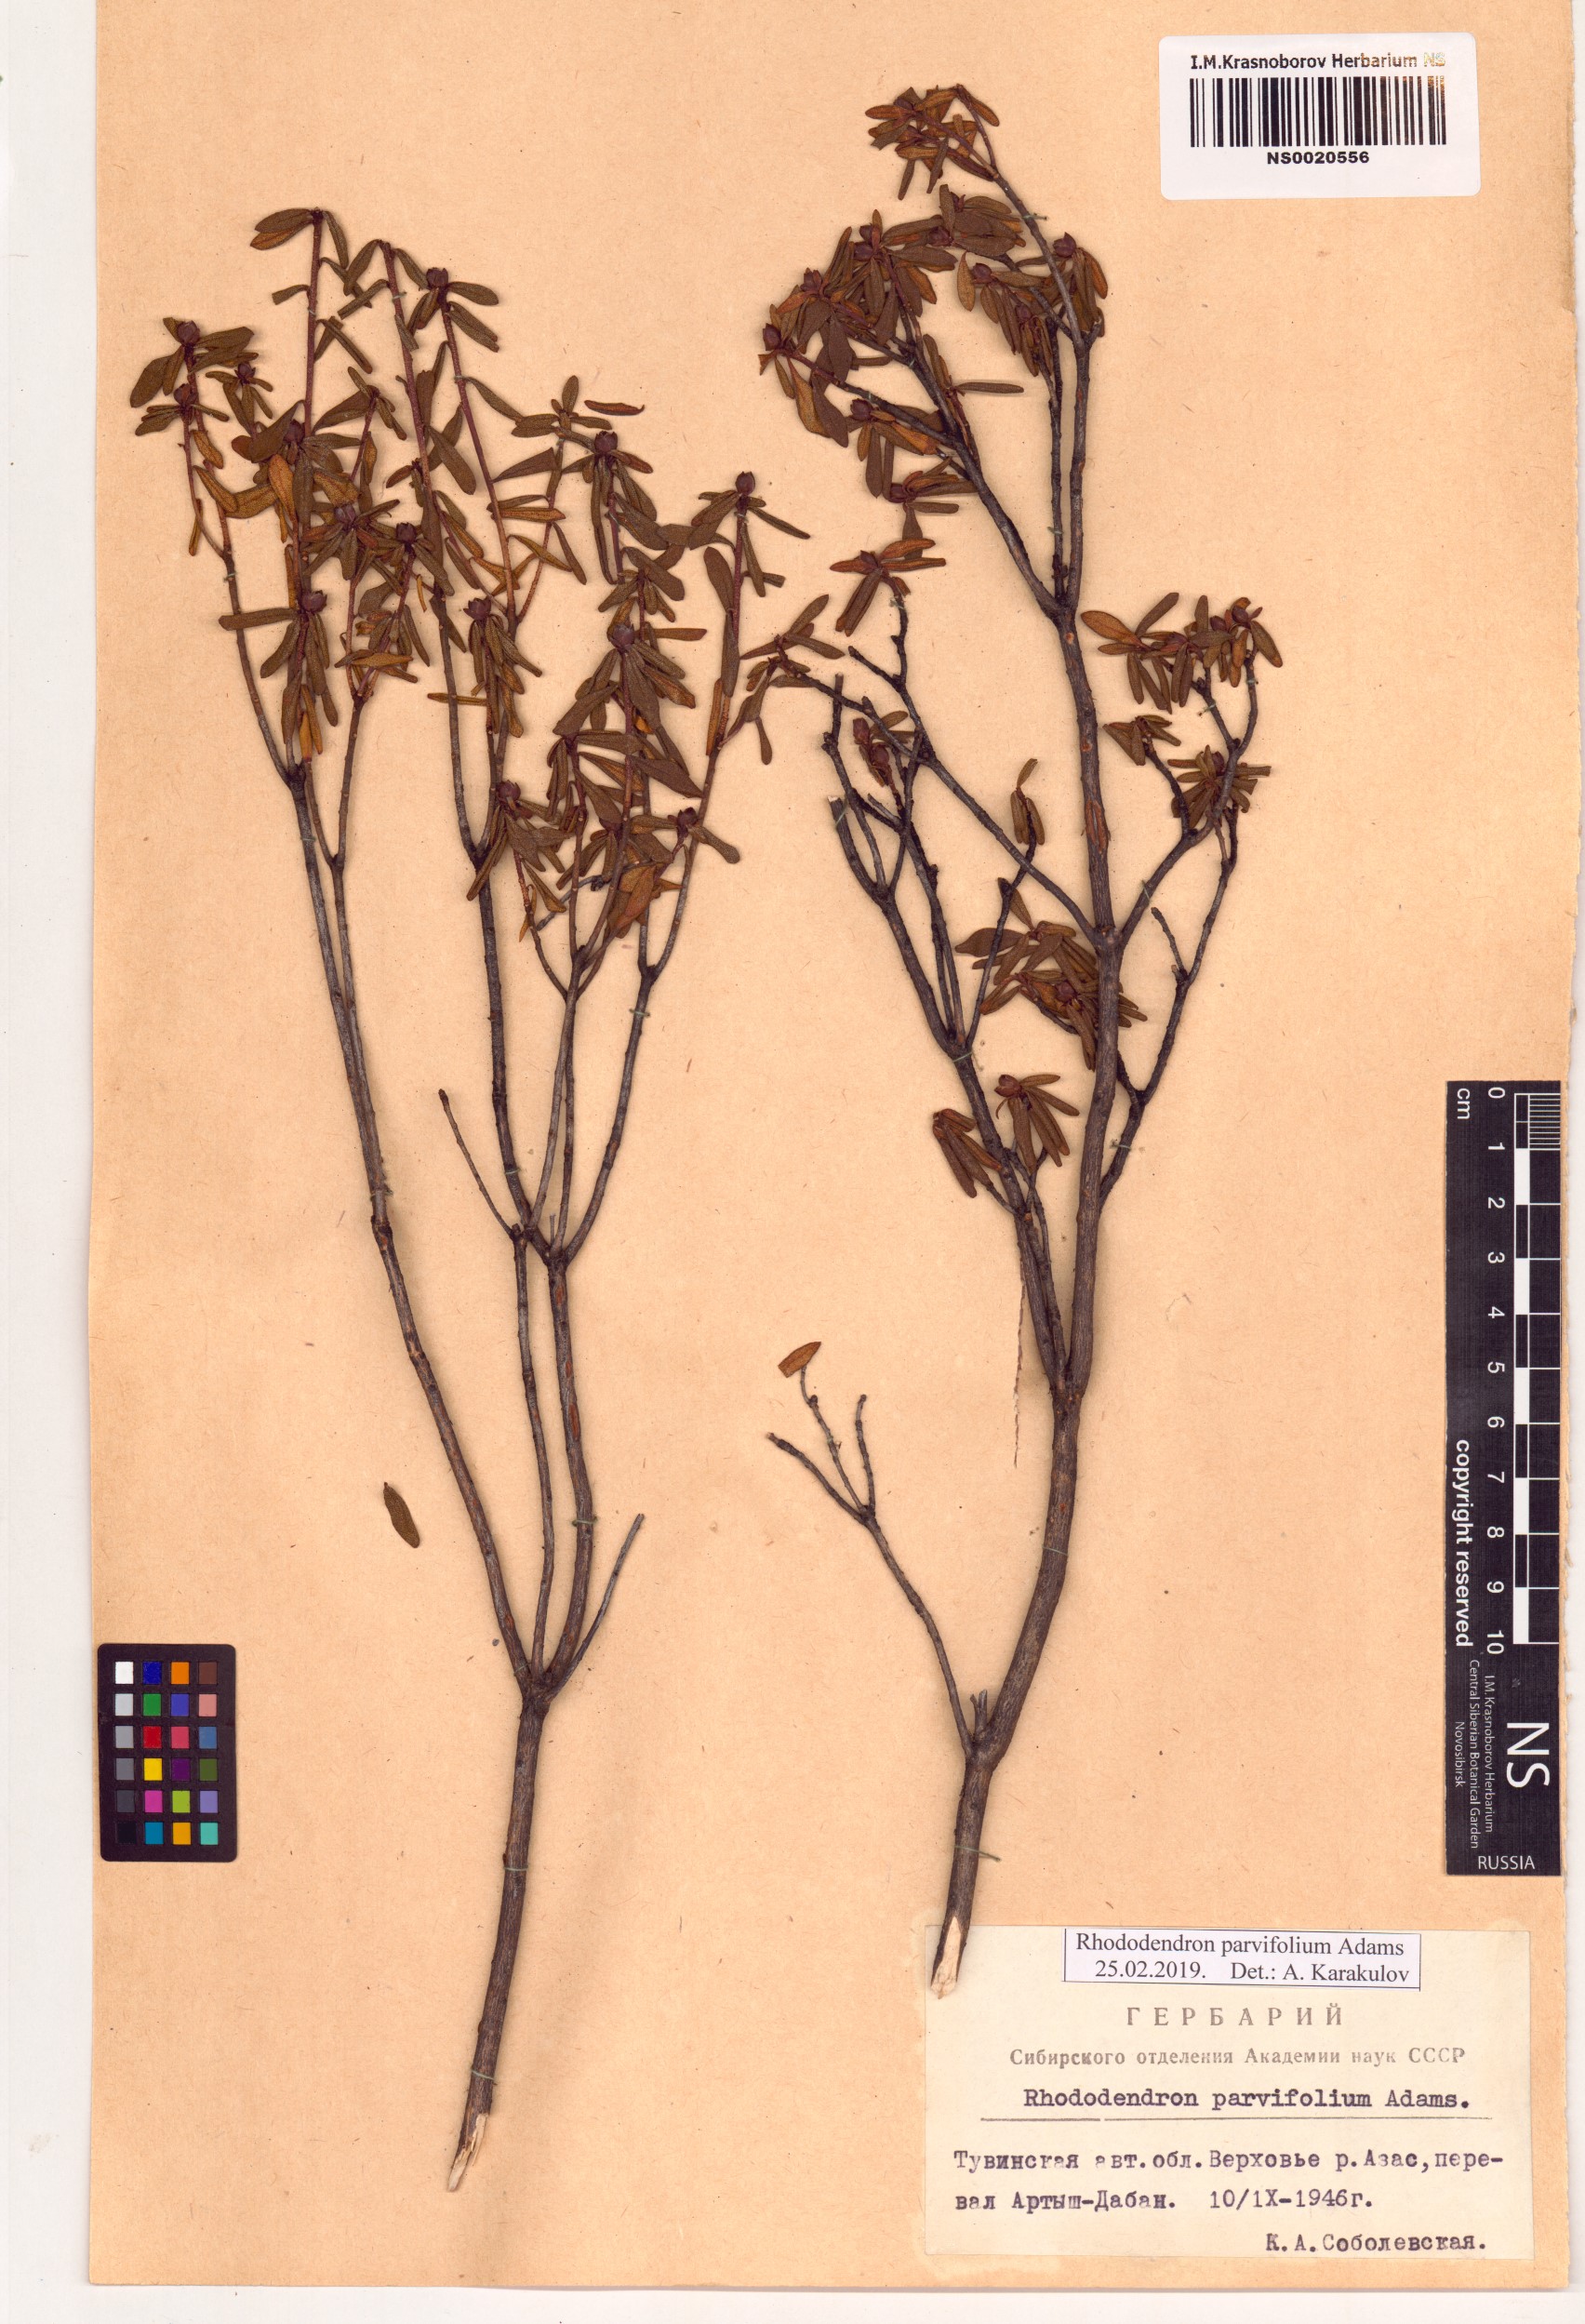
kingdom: Plantae
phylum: Tracheophyta
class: Magnoliopsida
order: Ericales
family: Ericaceae
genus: Rhododendron
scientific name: Rhododendron parvifolium
